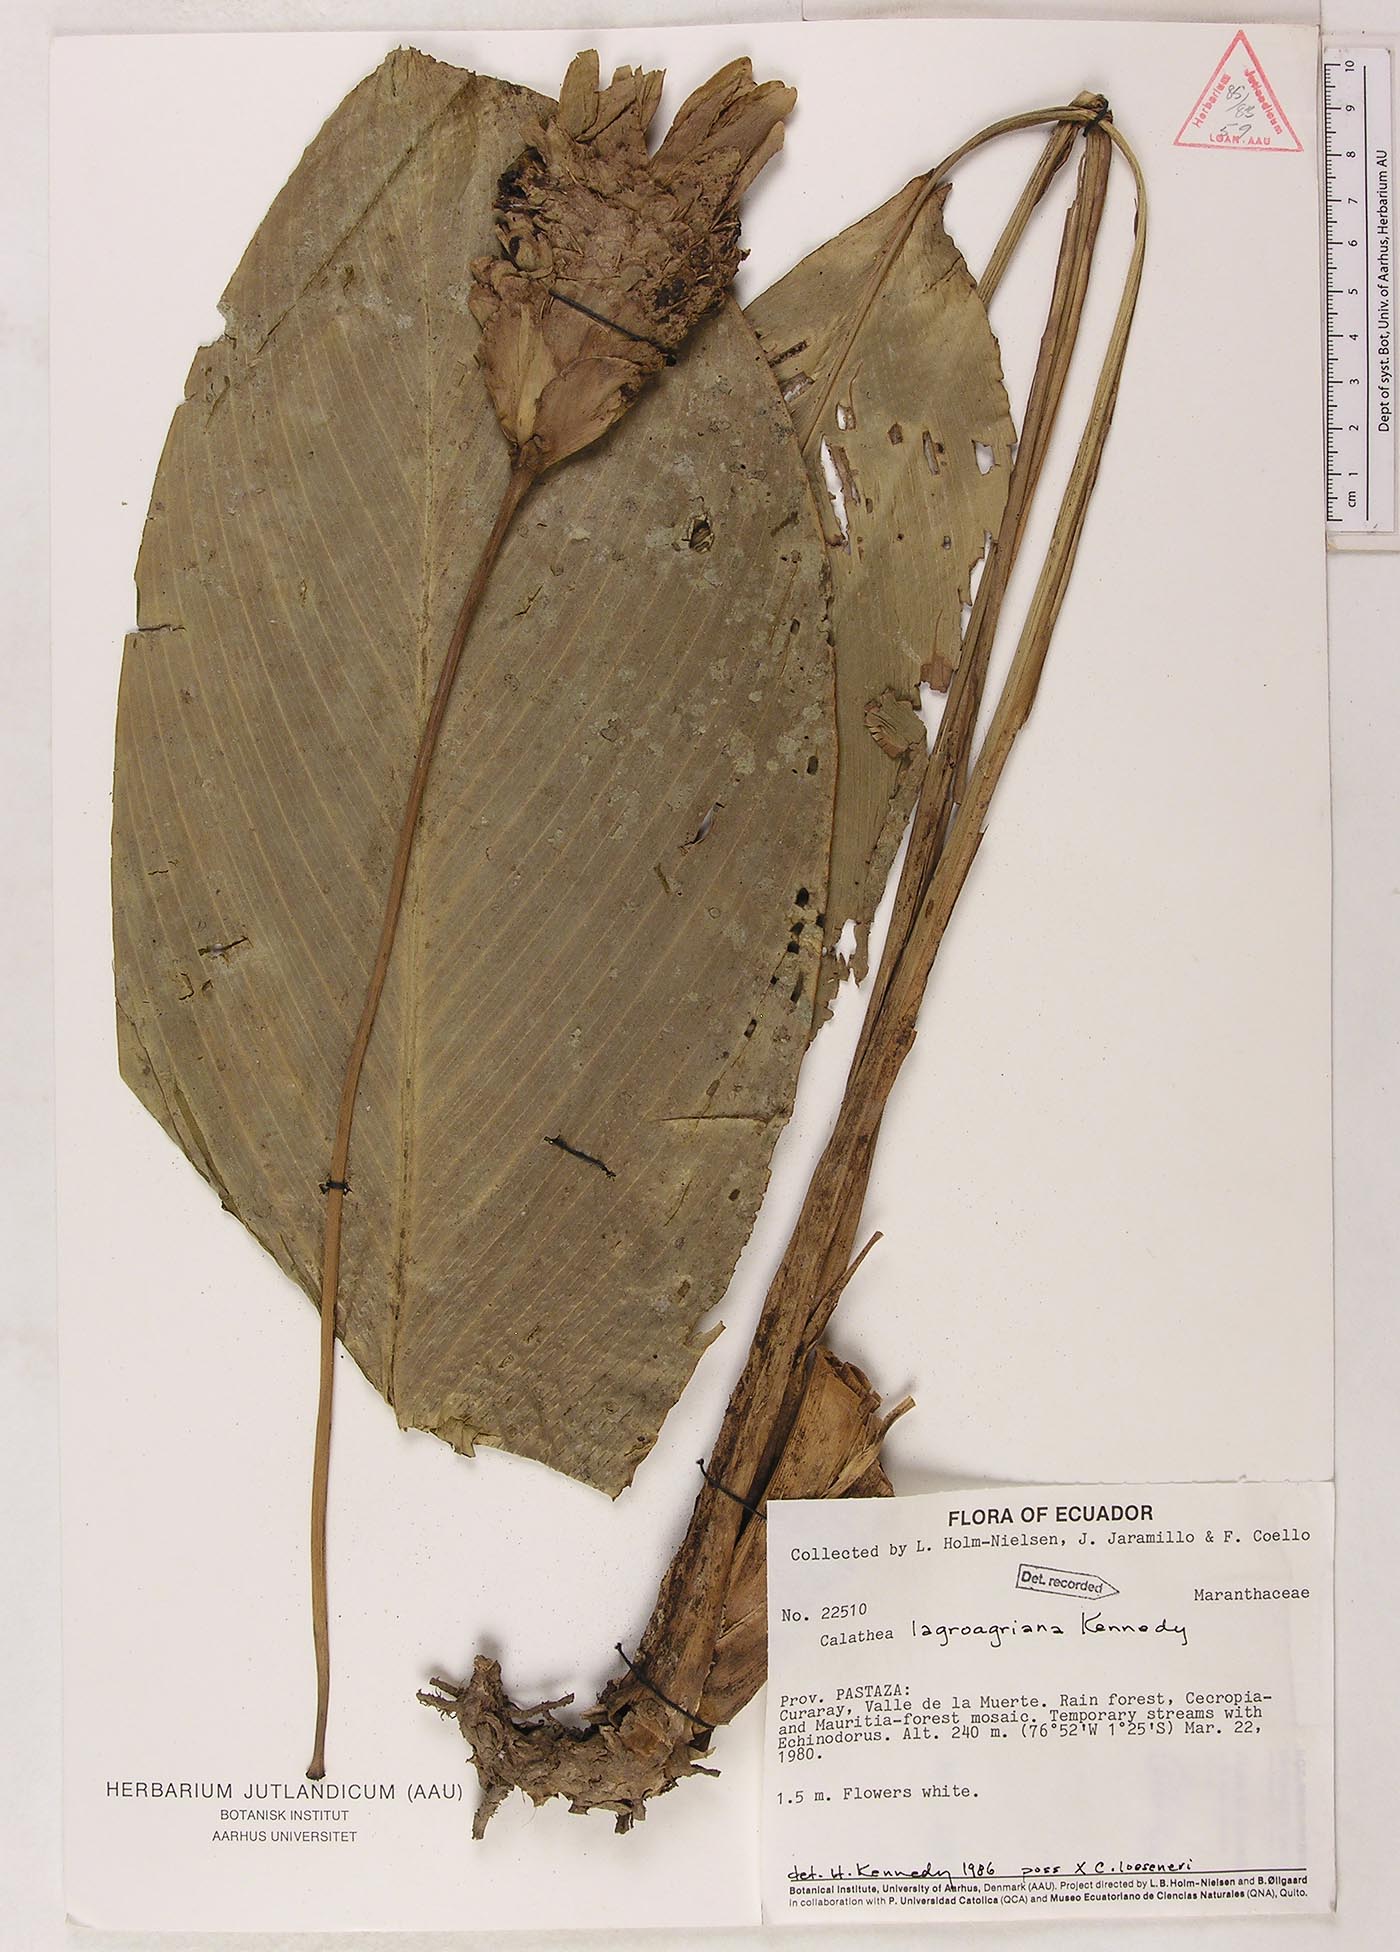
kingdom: Plantae
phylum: Tracheophyta
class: Liliopsida
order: Zingiberales
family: Marantaceae
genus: Goeppertia
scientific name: Goeppertia lagoagriana
